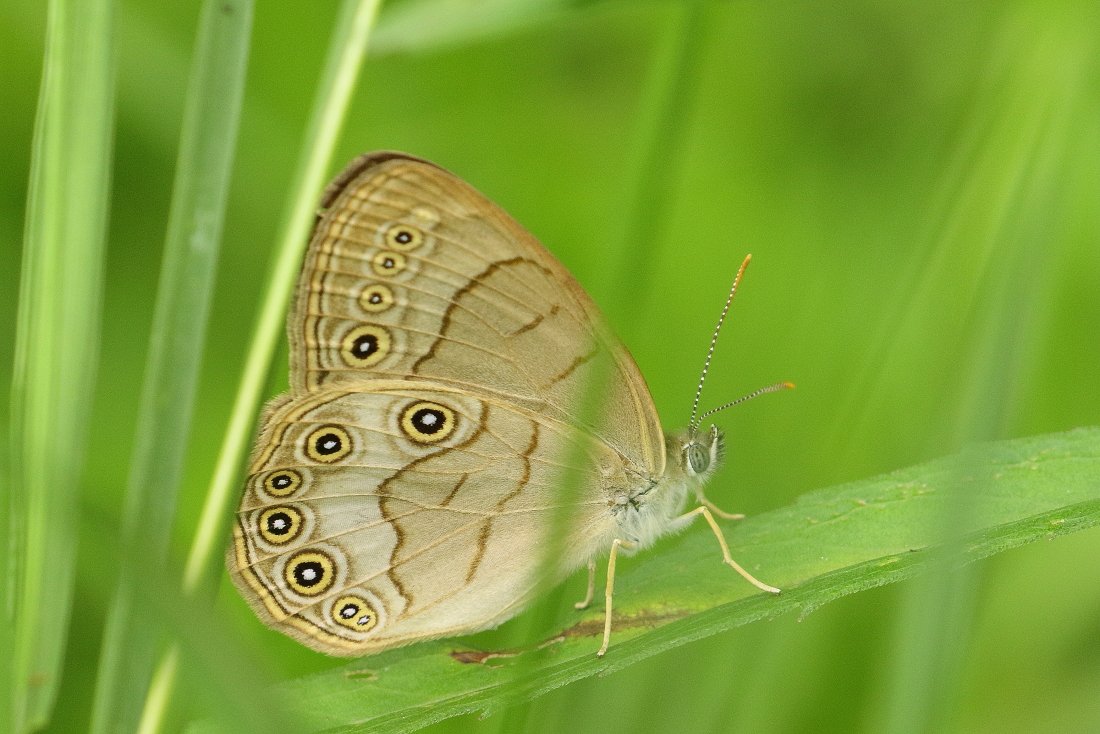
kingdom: Animalia
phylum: Arthropoda
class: Insecta
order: Lepidoptera
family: Nymphalidae
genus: Lethe
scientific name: Lethe eurydice
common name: Appalachian Eyed Brown
